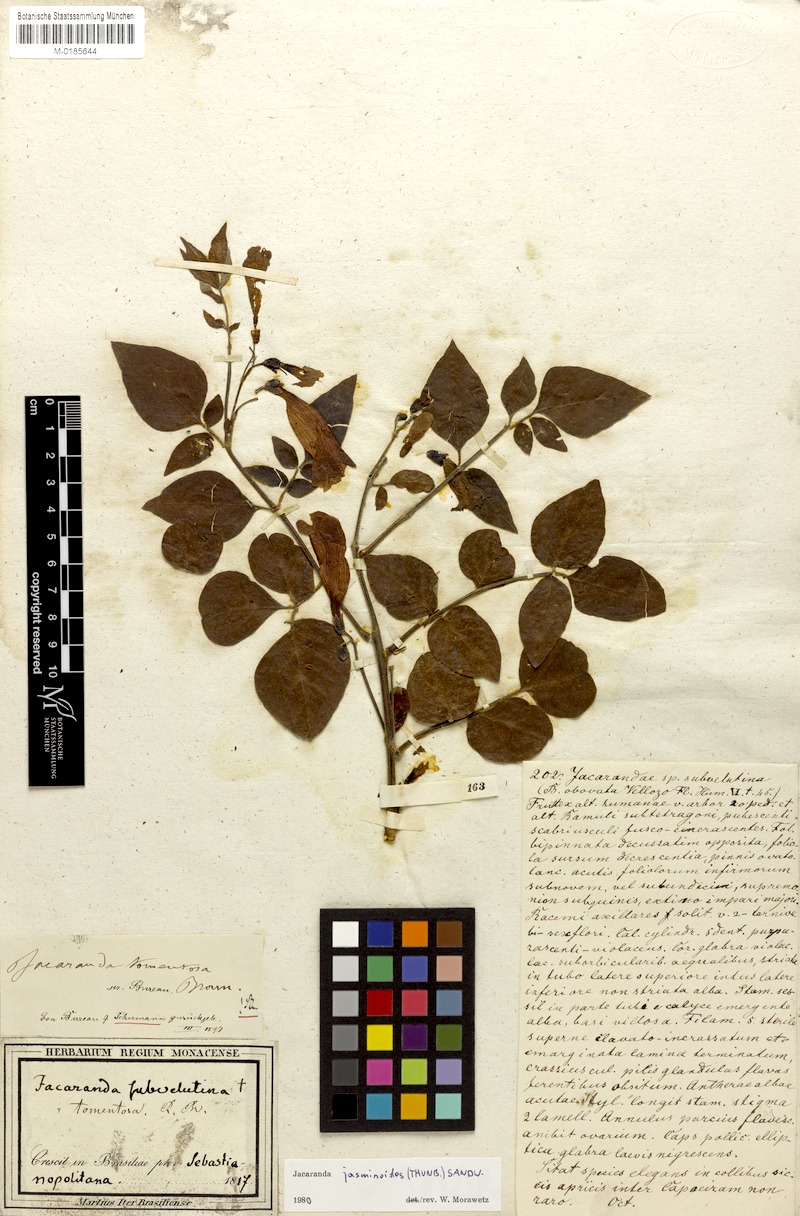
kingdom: Plantae
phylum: Tracheophyta
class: Magnoliopsida
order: Lamiales
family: Bignoniaceae
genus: Jacaranda
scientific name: Jacaranda jasminoides
